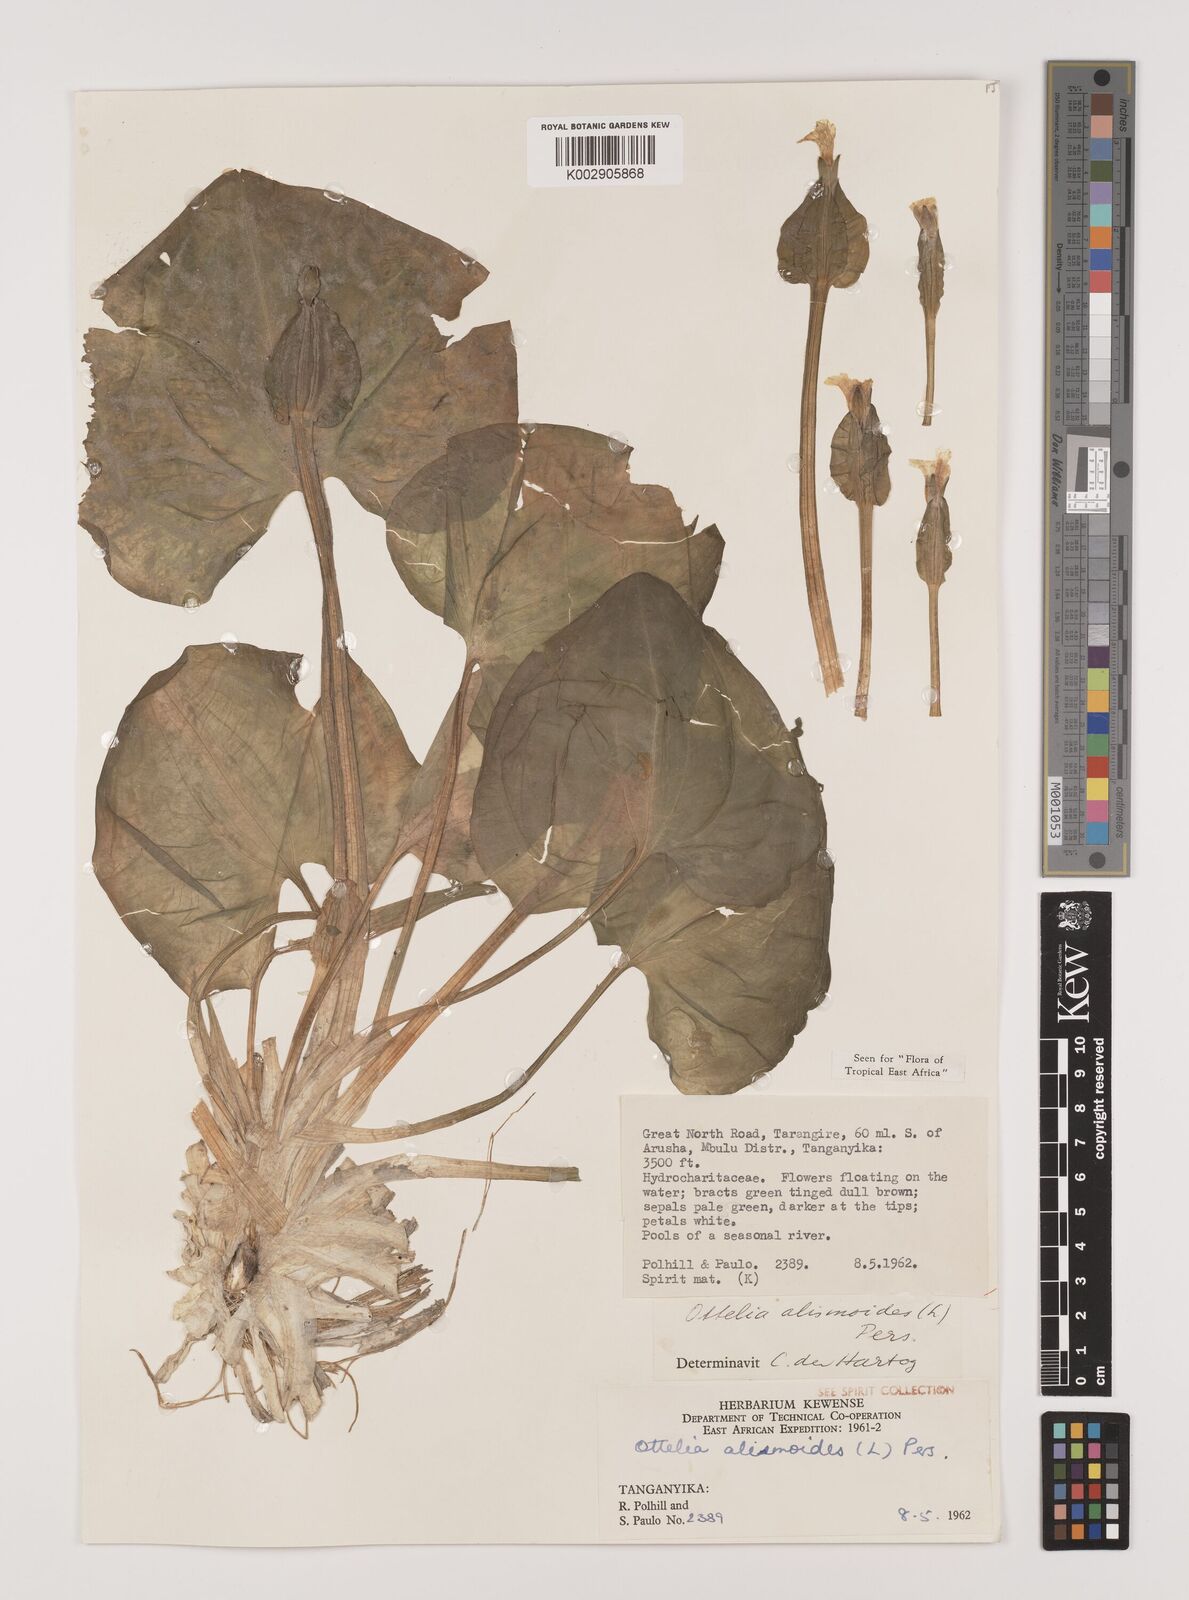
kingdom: Plantae
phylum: Tracheophyta
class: Liliopsida
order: Alismatales
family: Hydrocharitaceae
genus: Ottelia
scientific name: Ottelia alismoides
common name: Duck-lettuce
